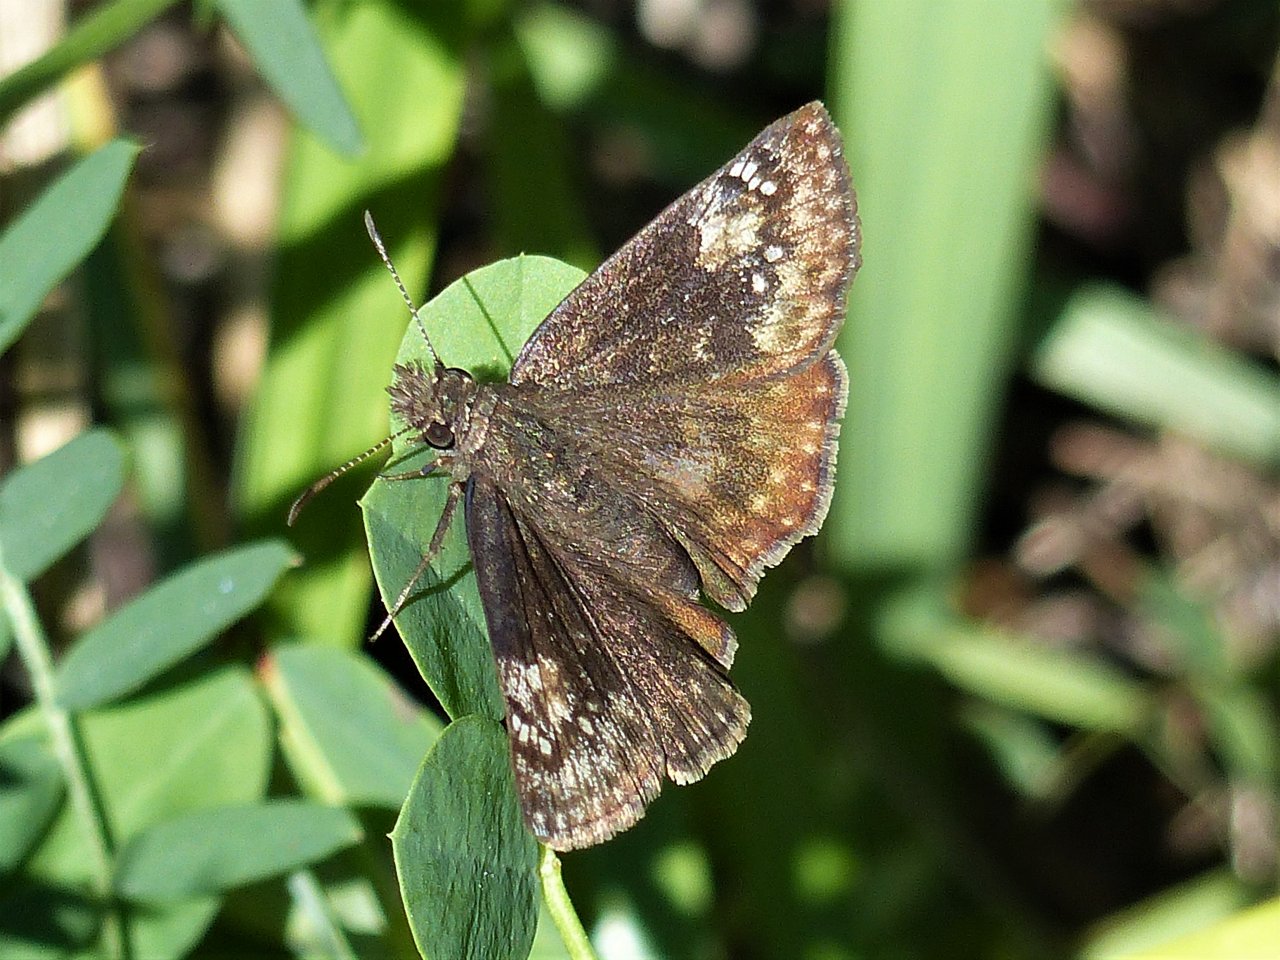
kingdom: Animalia
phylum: Arthropoda
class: Insecta
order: Lepidoptera
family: Hesperiidae
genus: Gesta
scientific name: Gesta
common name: Wild Indigo Duskywing
